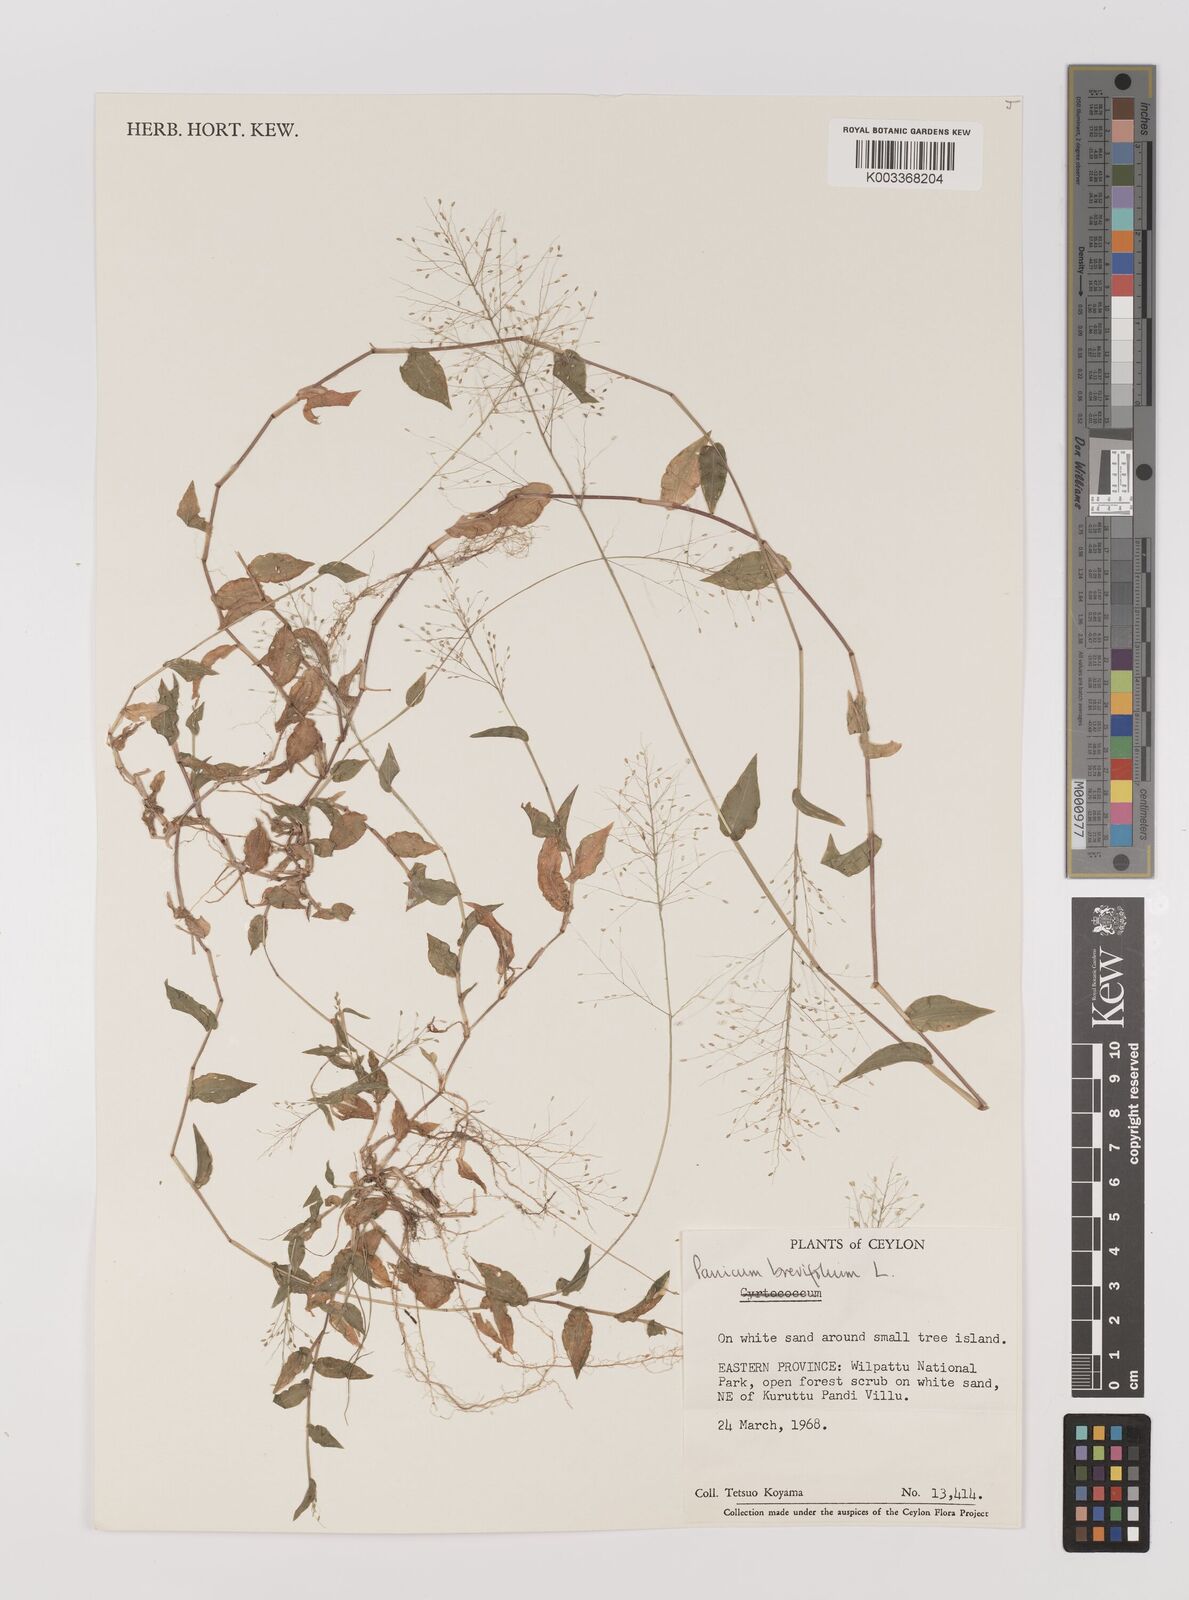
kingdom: Plantae
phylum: Tracheophyta
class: Liliopsida
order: Poales
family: Poaceae
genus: Panicum
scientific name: Panicum brevifolium
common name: Shortleaf panic grass
